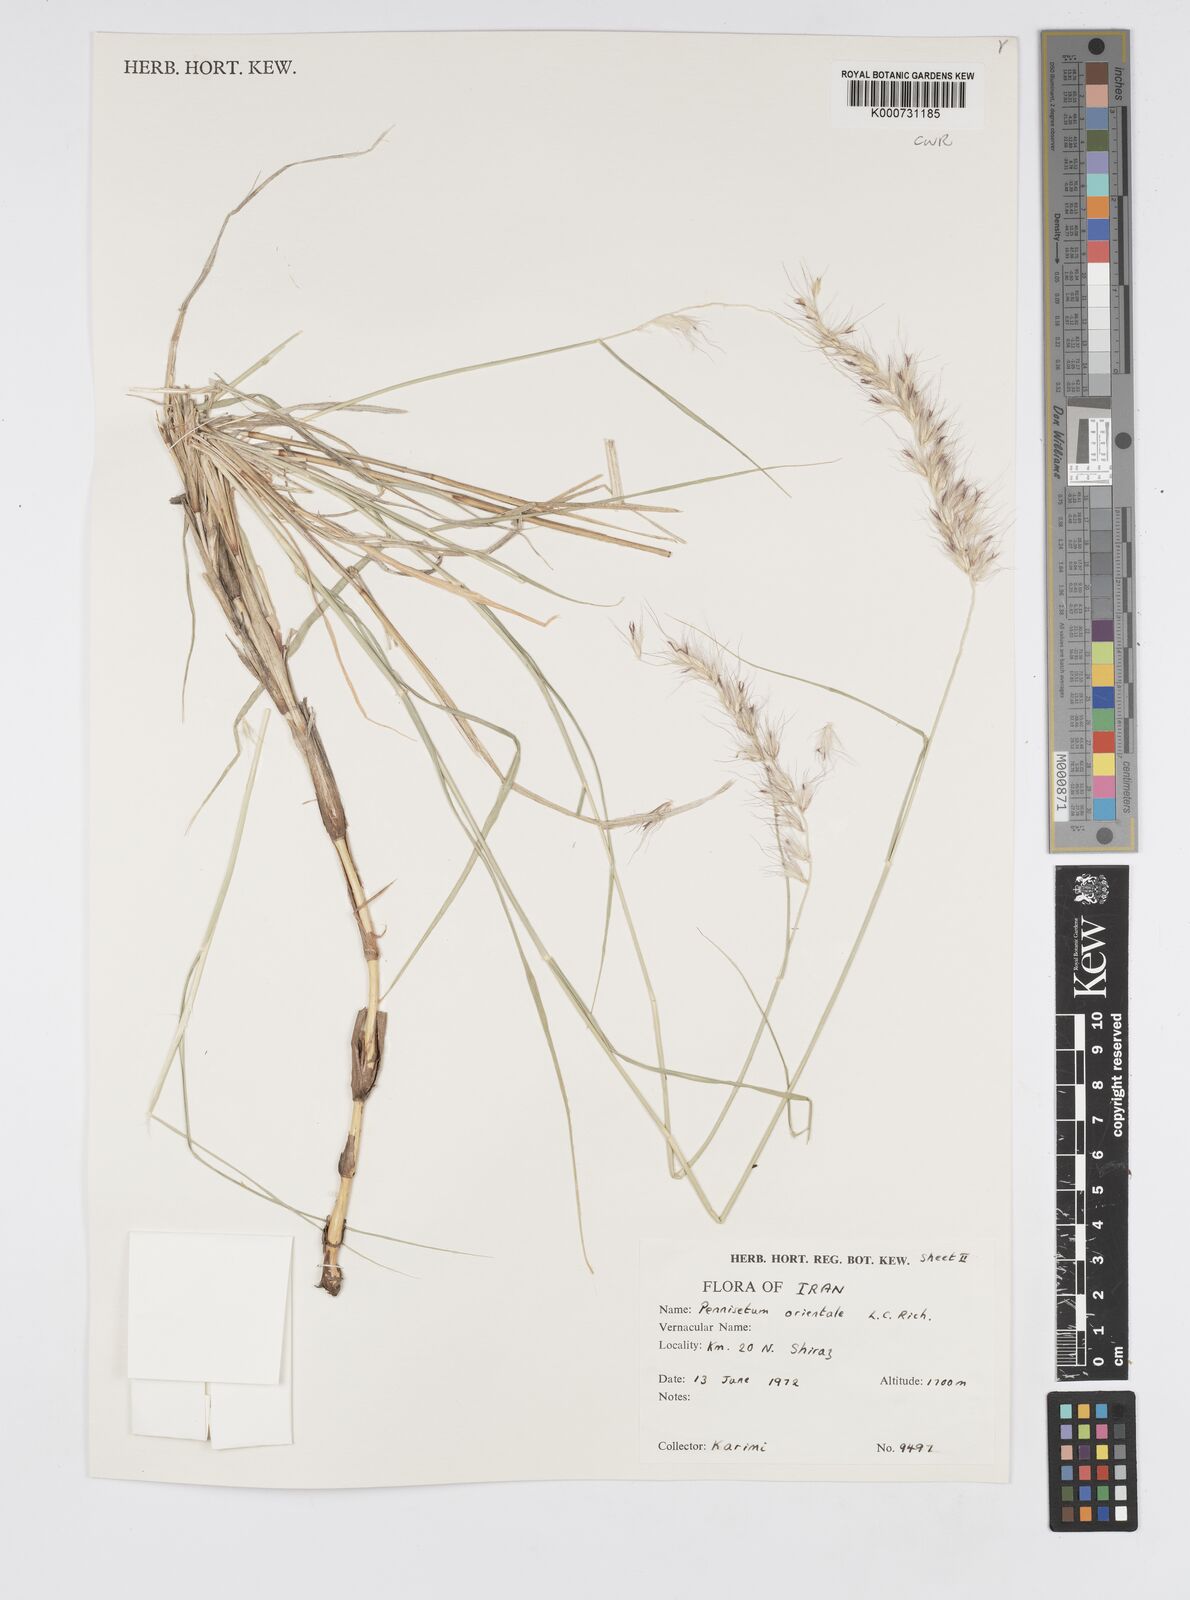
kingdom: Plantae
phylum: Tracheophyta
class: Liliopsida
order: Poales
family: Poaceae
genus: Cenchrus
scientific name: Cenchrus orientalis
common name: Oriental fountain grass
